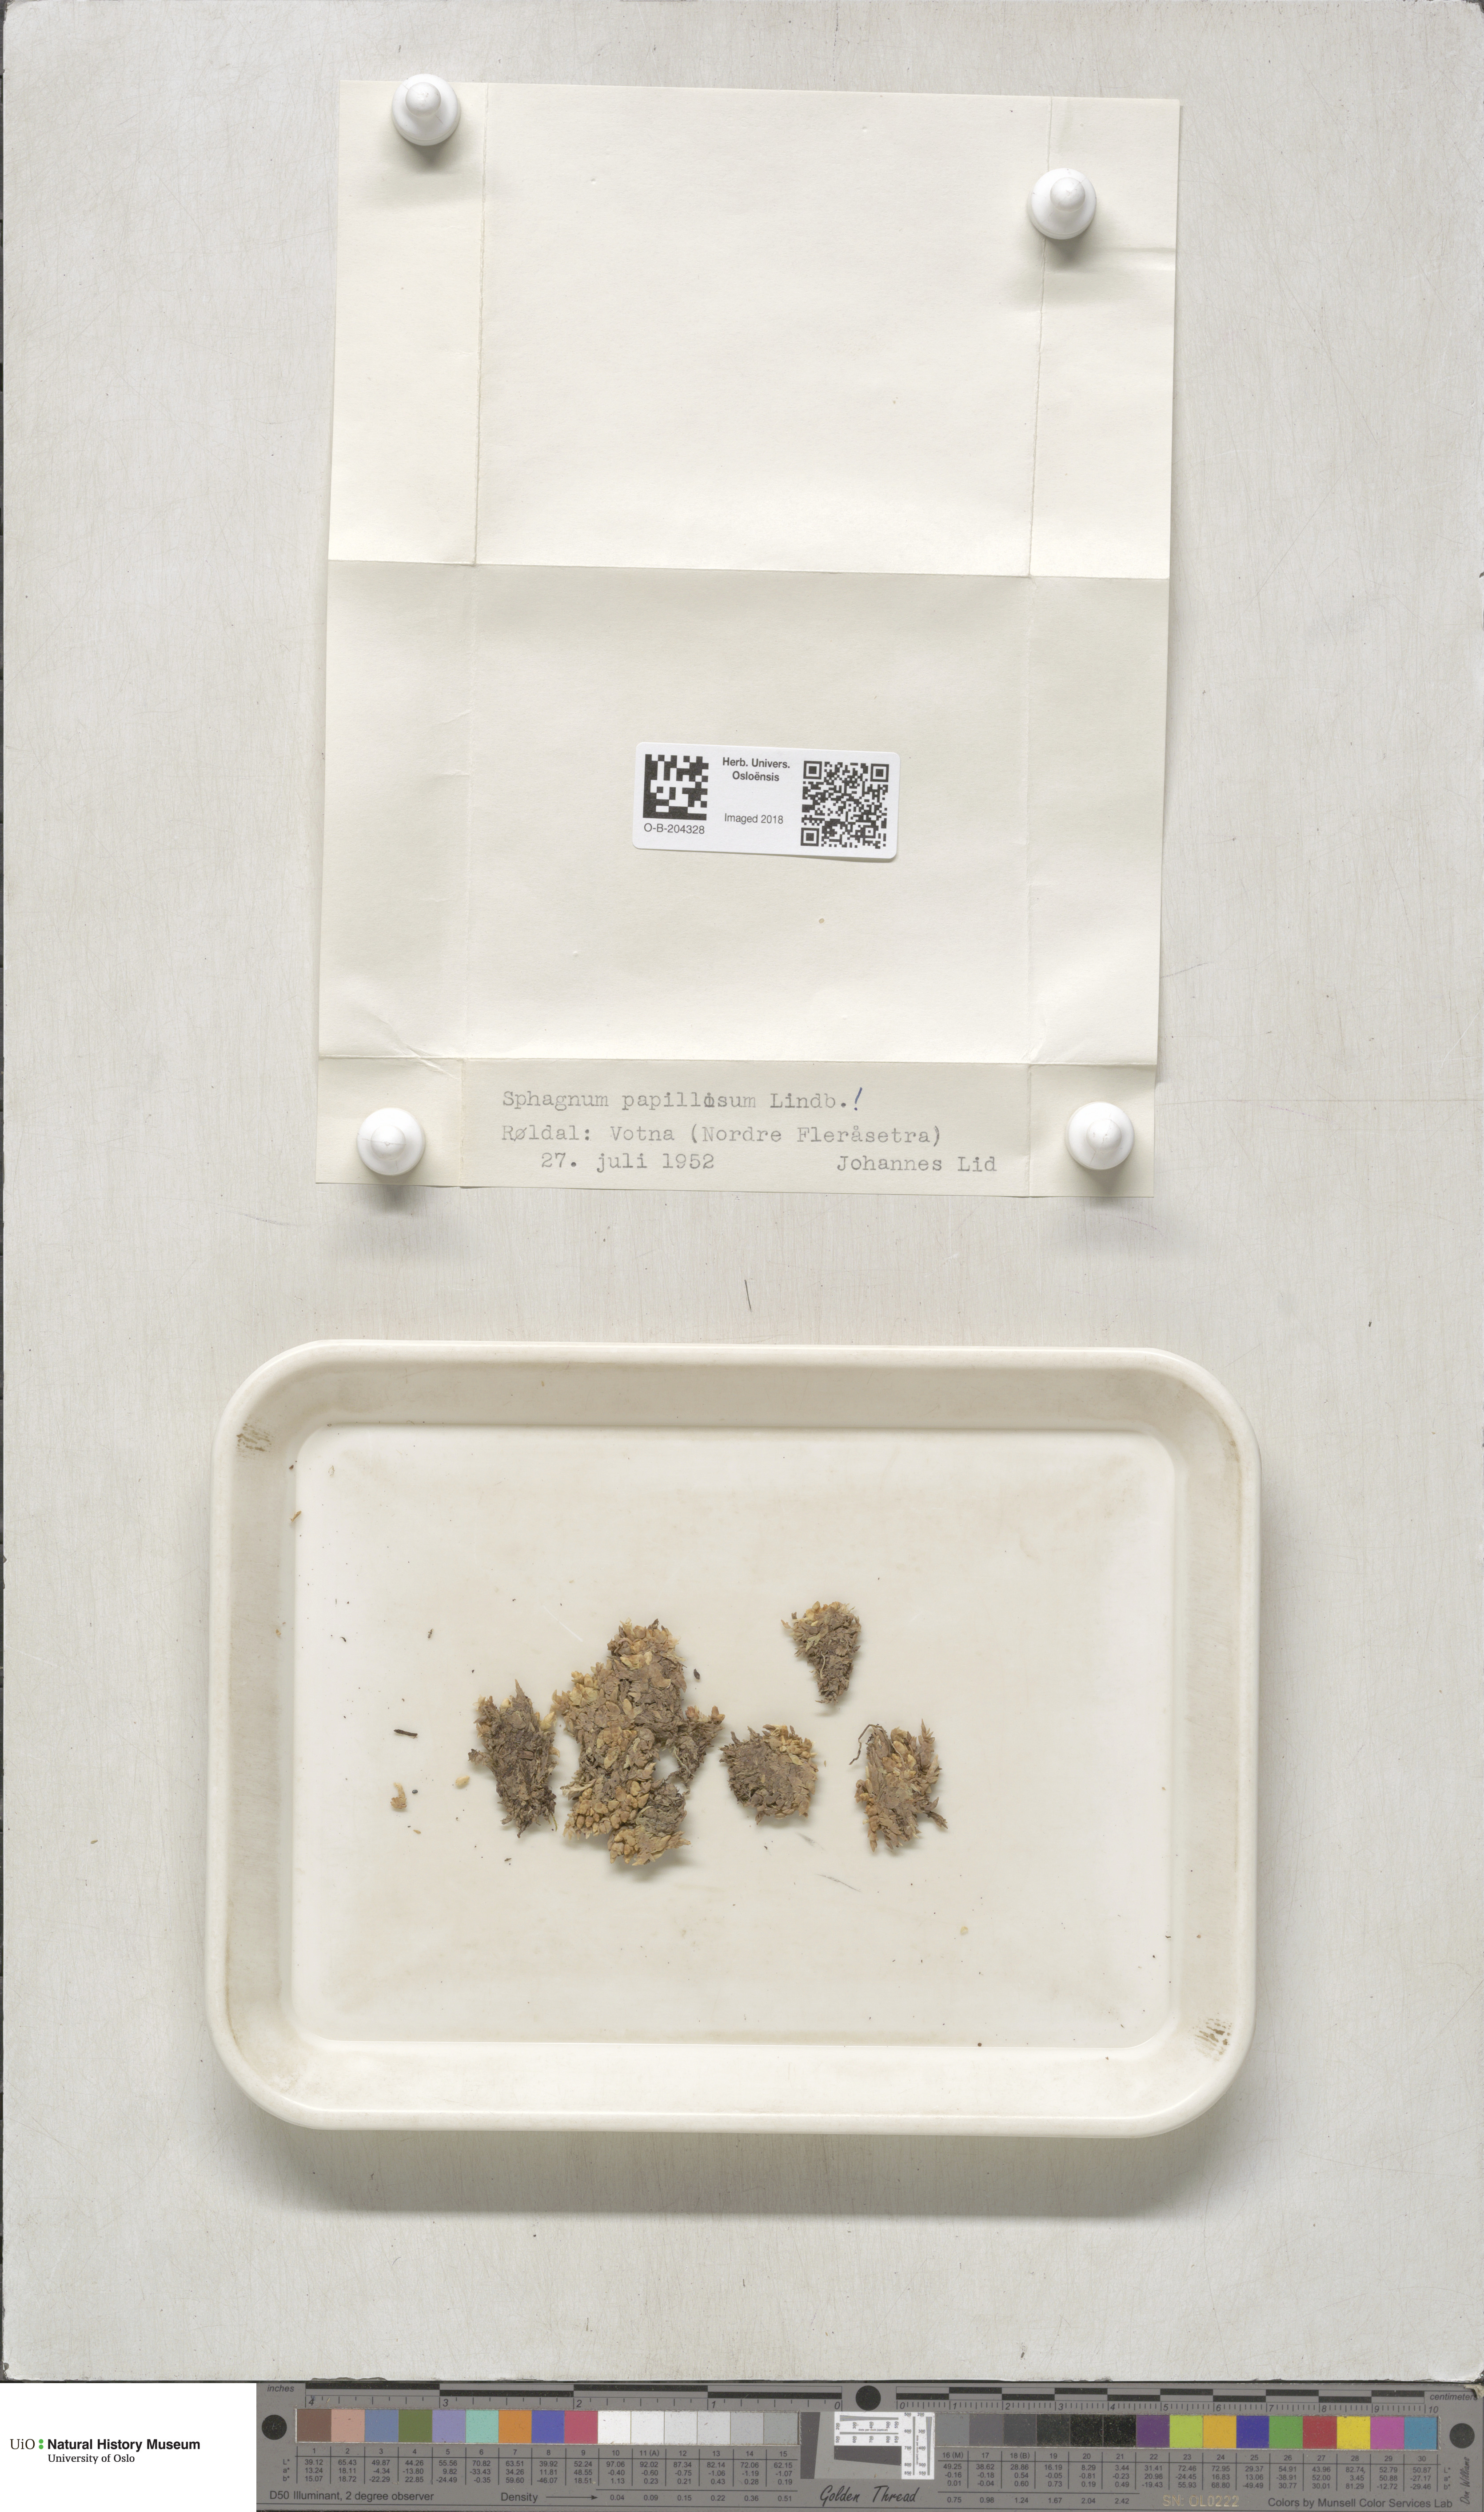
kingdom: Plantae
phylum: Bryophyta
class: Sphagnopsida
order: Sphagnales
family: Sphagnaceae
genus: Sphagnum
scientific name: Sphagnum papillosum
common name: Papillose peat moss
